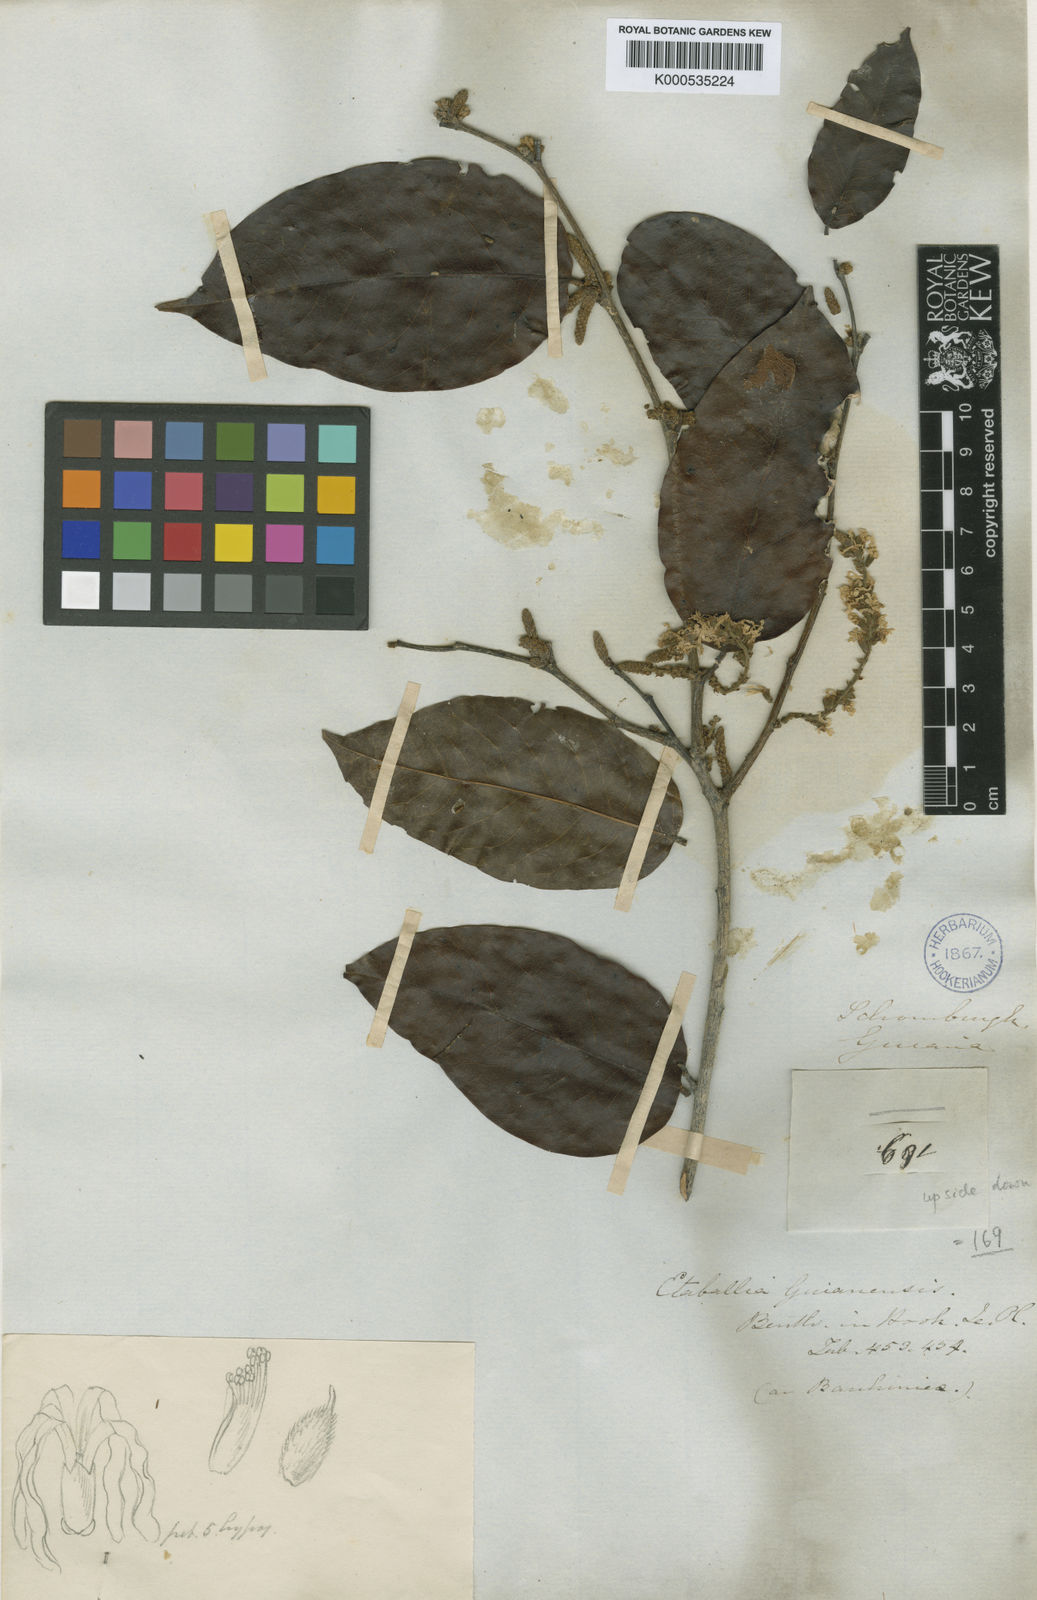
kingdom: Plantae
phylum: Tracheophyta
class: Magnoliopsida
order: Fabales
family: Fabaceae
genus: Pterocarpus
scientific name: Pterocarpus dubius
